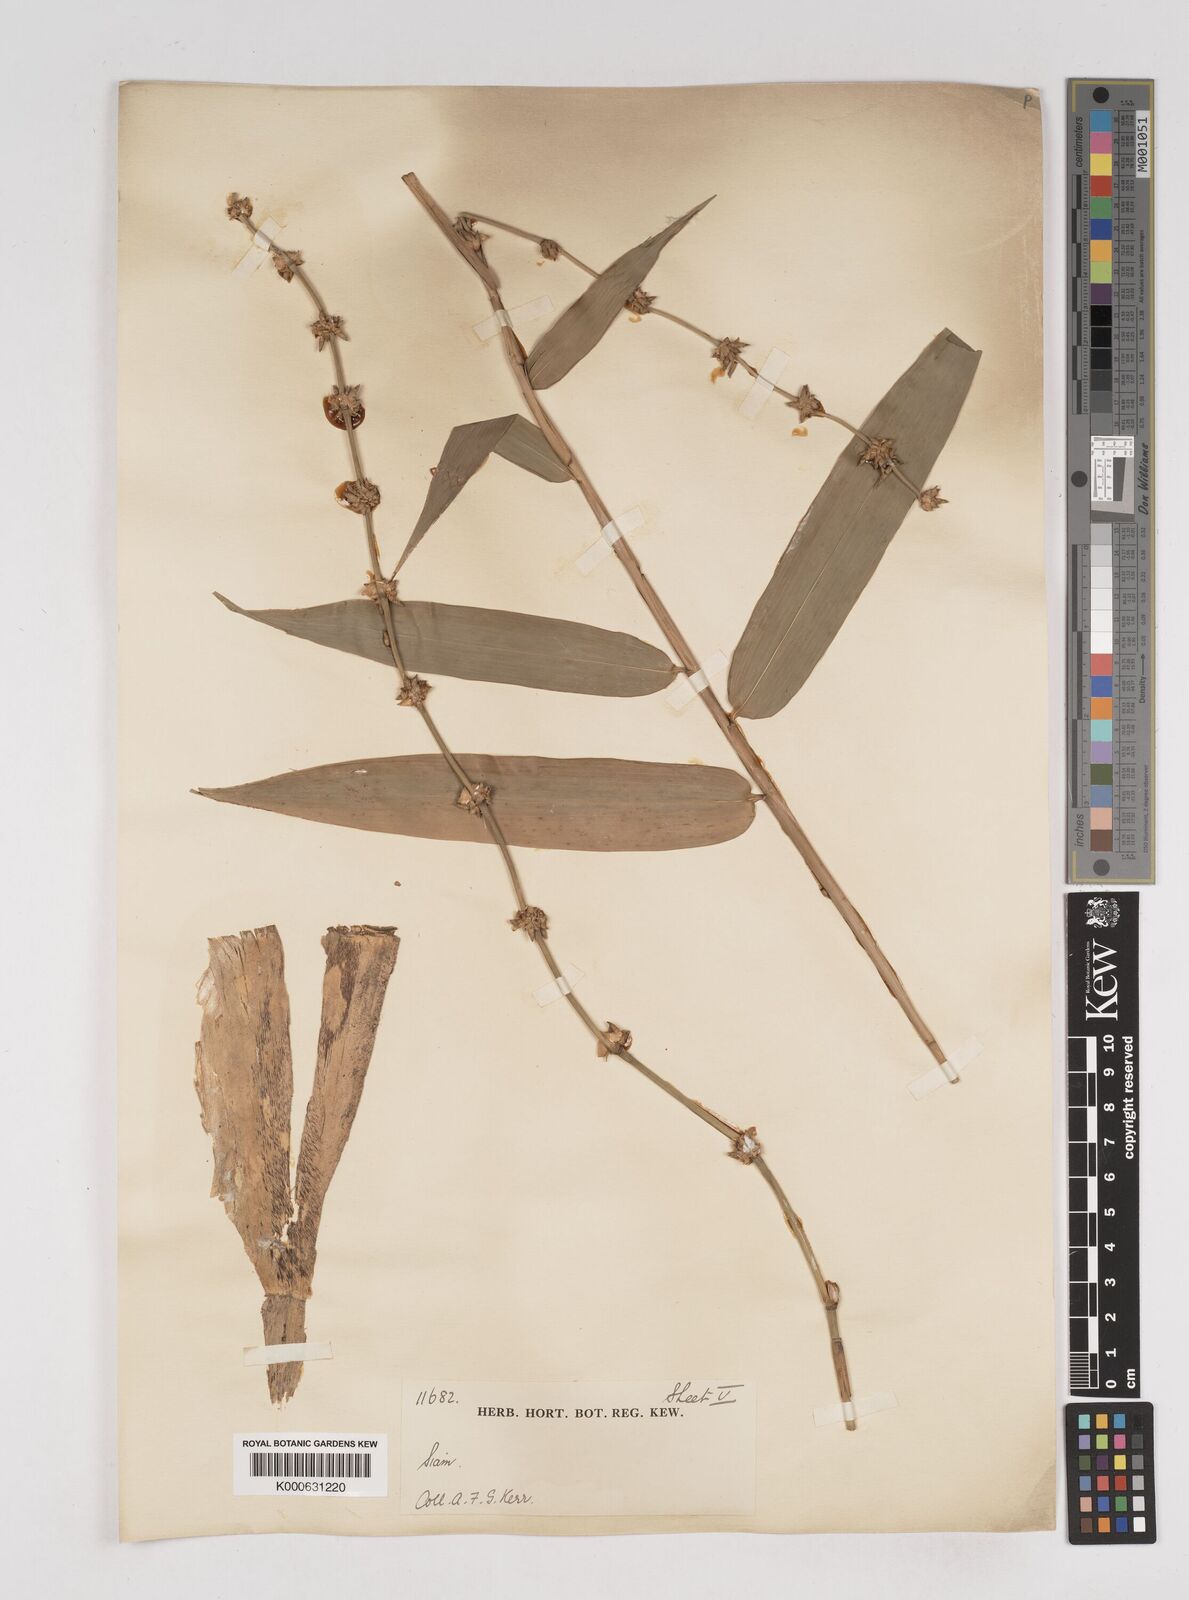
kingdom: Plantae
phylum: Tracheophyta
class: Liliopsida
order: Poales
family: Poaceae
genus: Gigantochloa
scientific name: Gigantochloa
